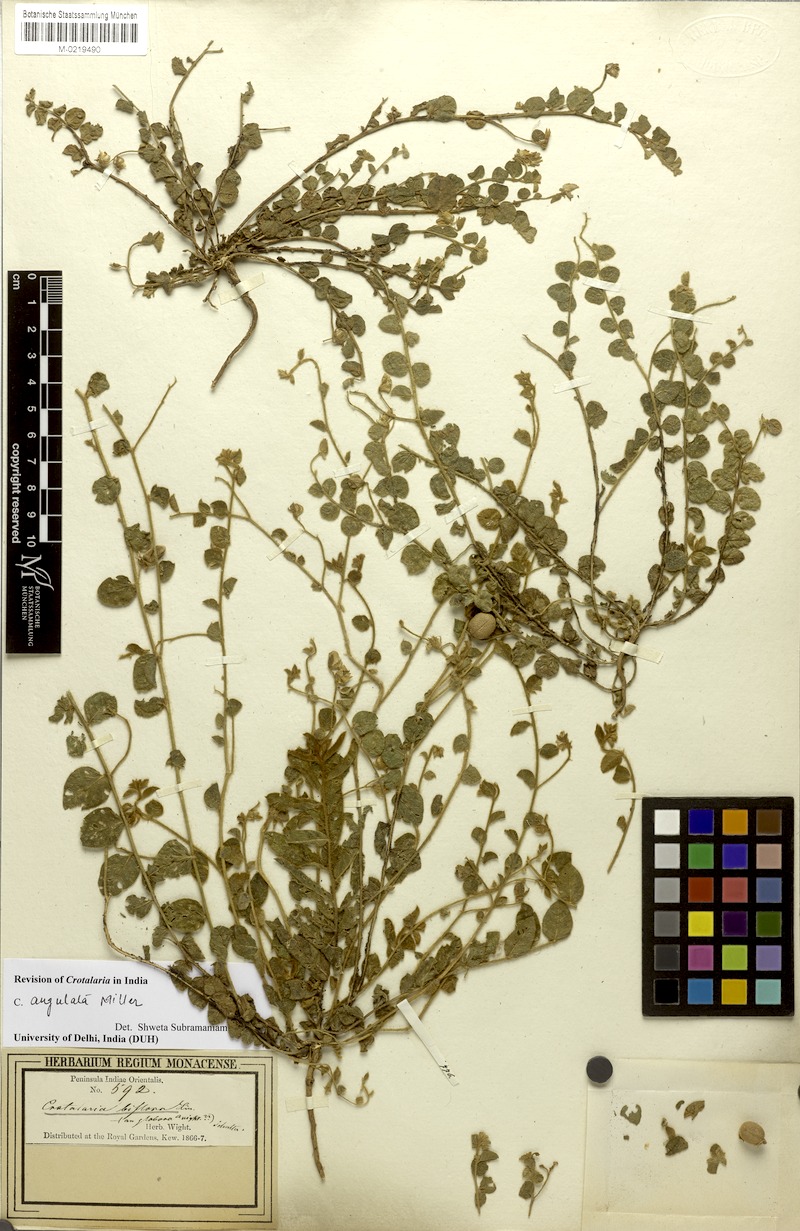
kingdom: Plantae
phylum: Tracheophyta
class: Magnoliopsida
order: Fabales
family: Fabaceae
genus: Crotalaria
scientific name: Crotalaria angulata
